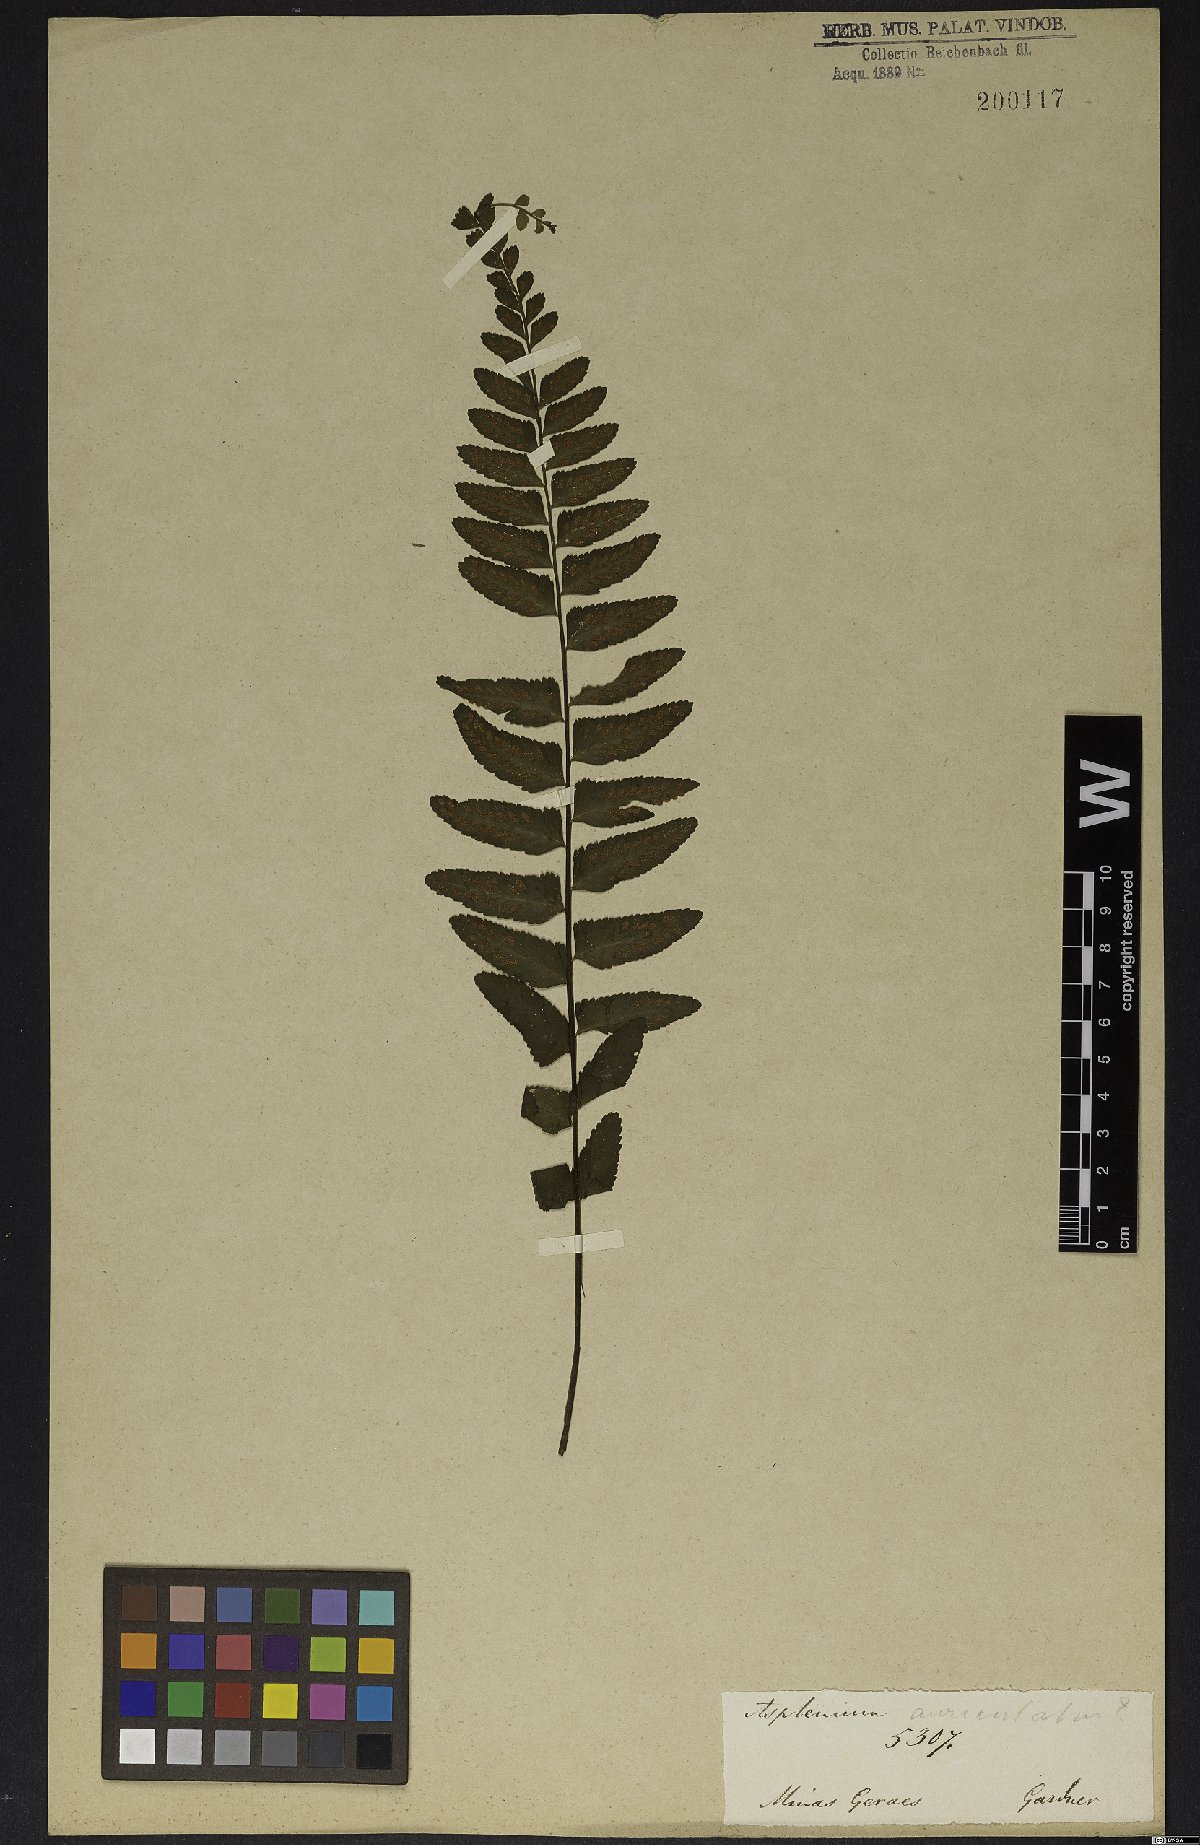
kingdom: Plantae
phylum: Tracheophyta
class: Polypodiopsida
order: Polypodiales
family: Aspleniaceae
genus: Asplenium
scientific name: Asplenium lunulatum
